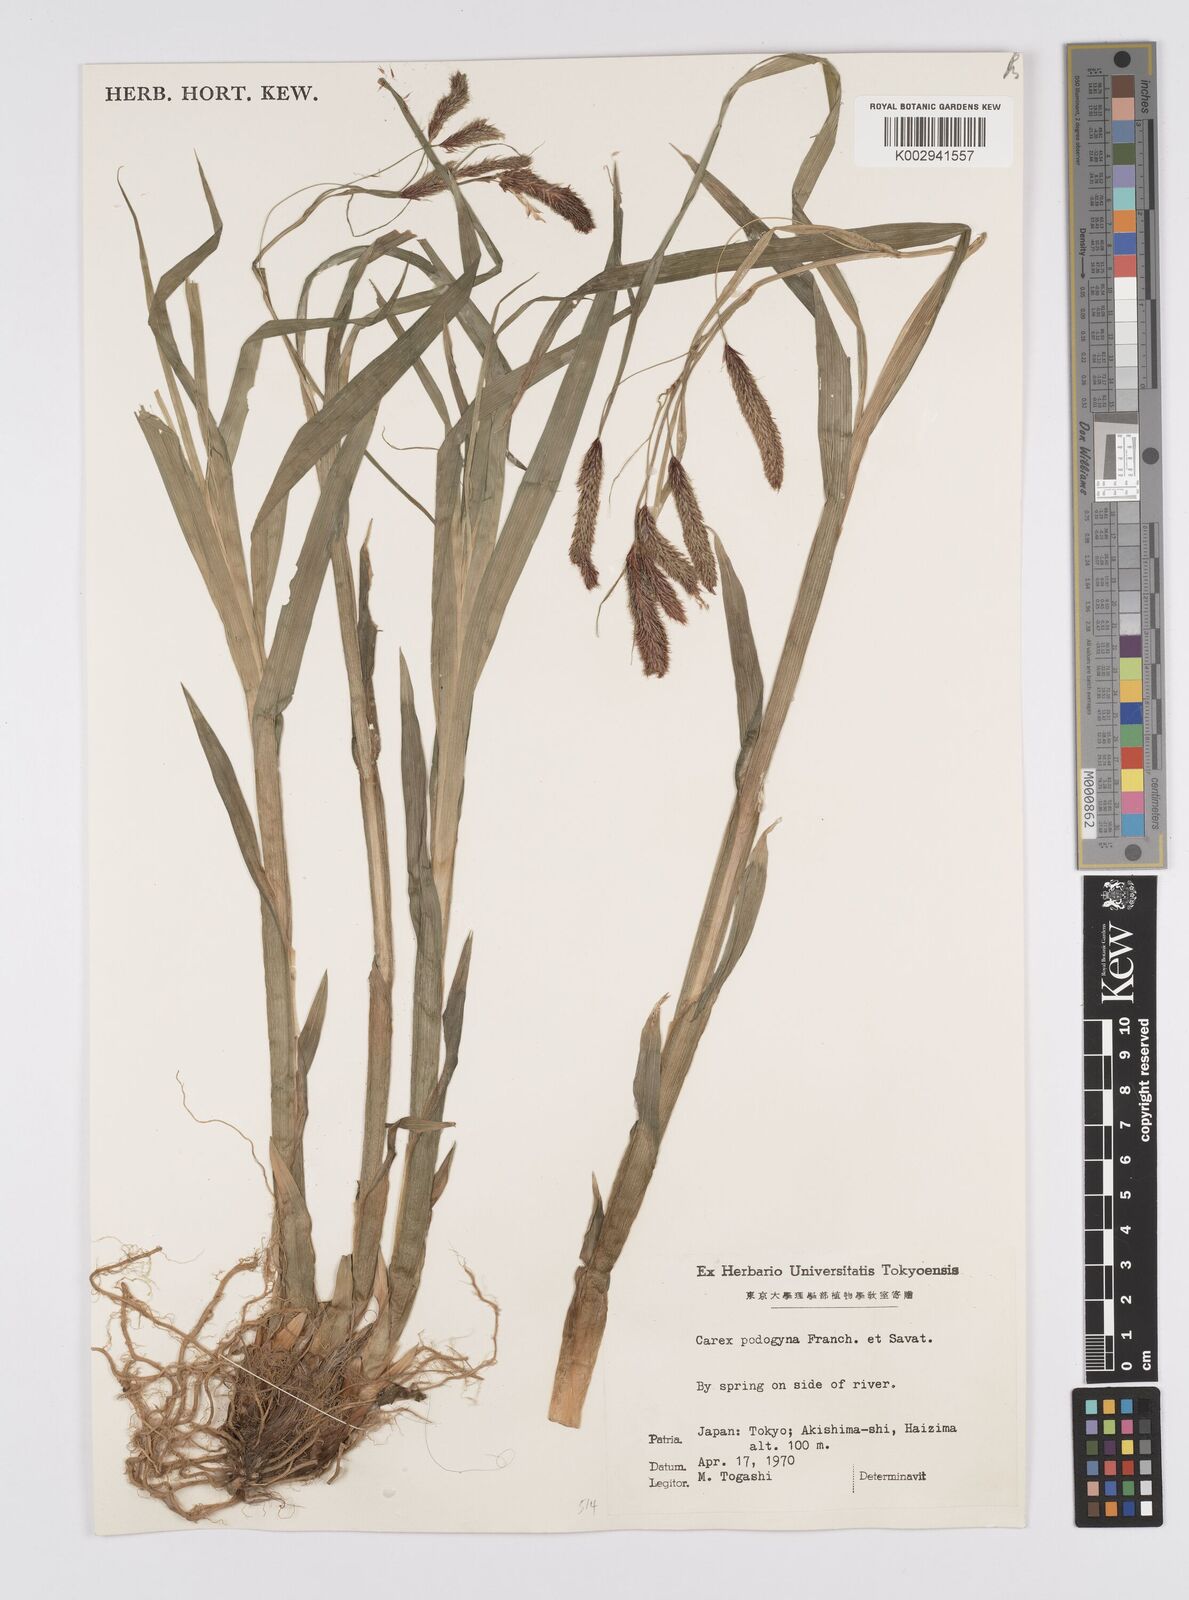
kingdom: Plantae
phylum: Tracheophyta
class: Liliopsida
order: Poales
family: Cyperaceae
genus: Carex
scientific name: Carex podogyna
